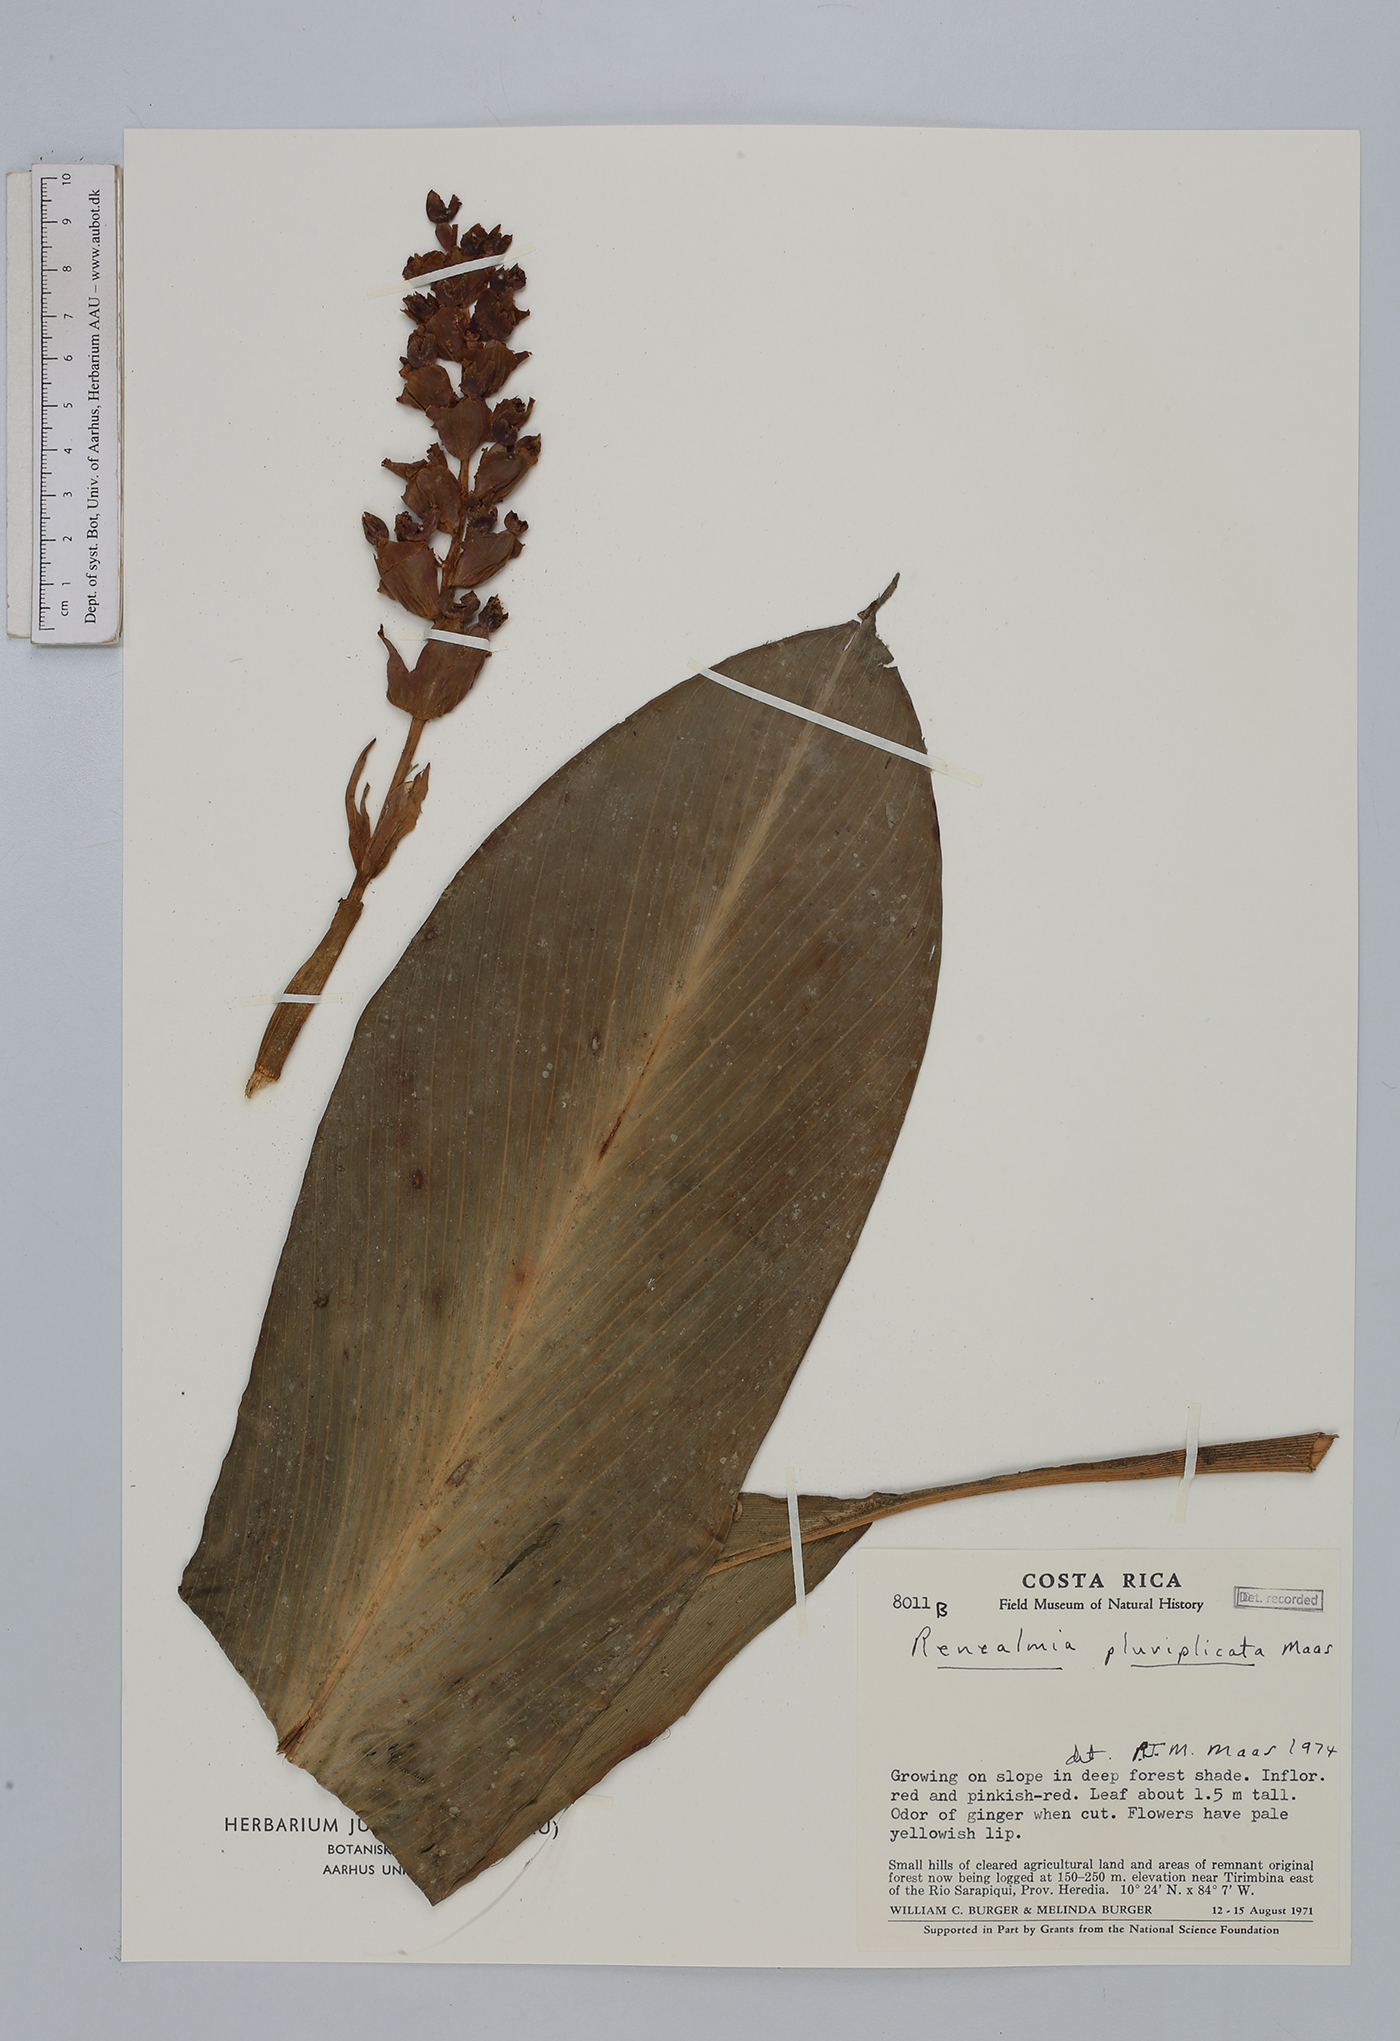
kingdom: Plantae
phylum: Tracheophyta
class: Liliopsida
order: Zingiberales
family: Zingiberaceae
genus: Renealmia
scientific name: Renealmia pluriplicata
